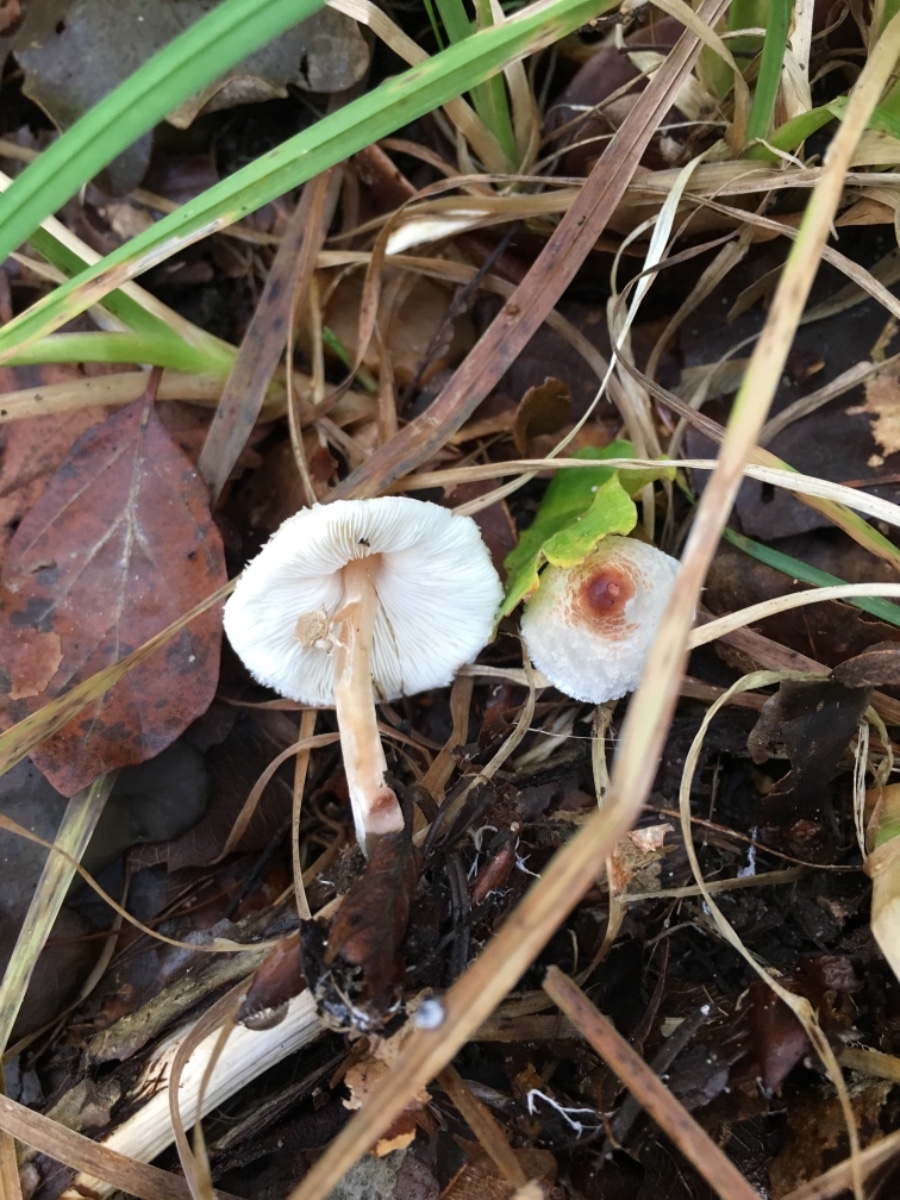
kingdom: Fungi
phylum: Basidiomycota
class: Agaricomycetes
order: Agaricales
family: Agaricaceae
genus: Lepiota
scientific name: Lepiota cristata
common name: stinkende parasolhat
